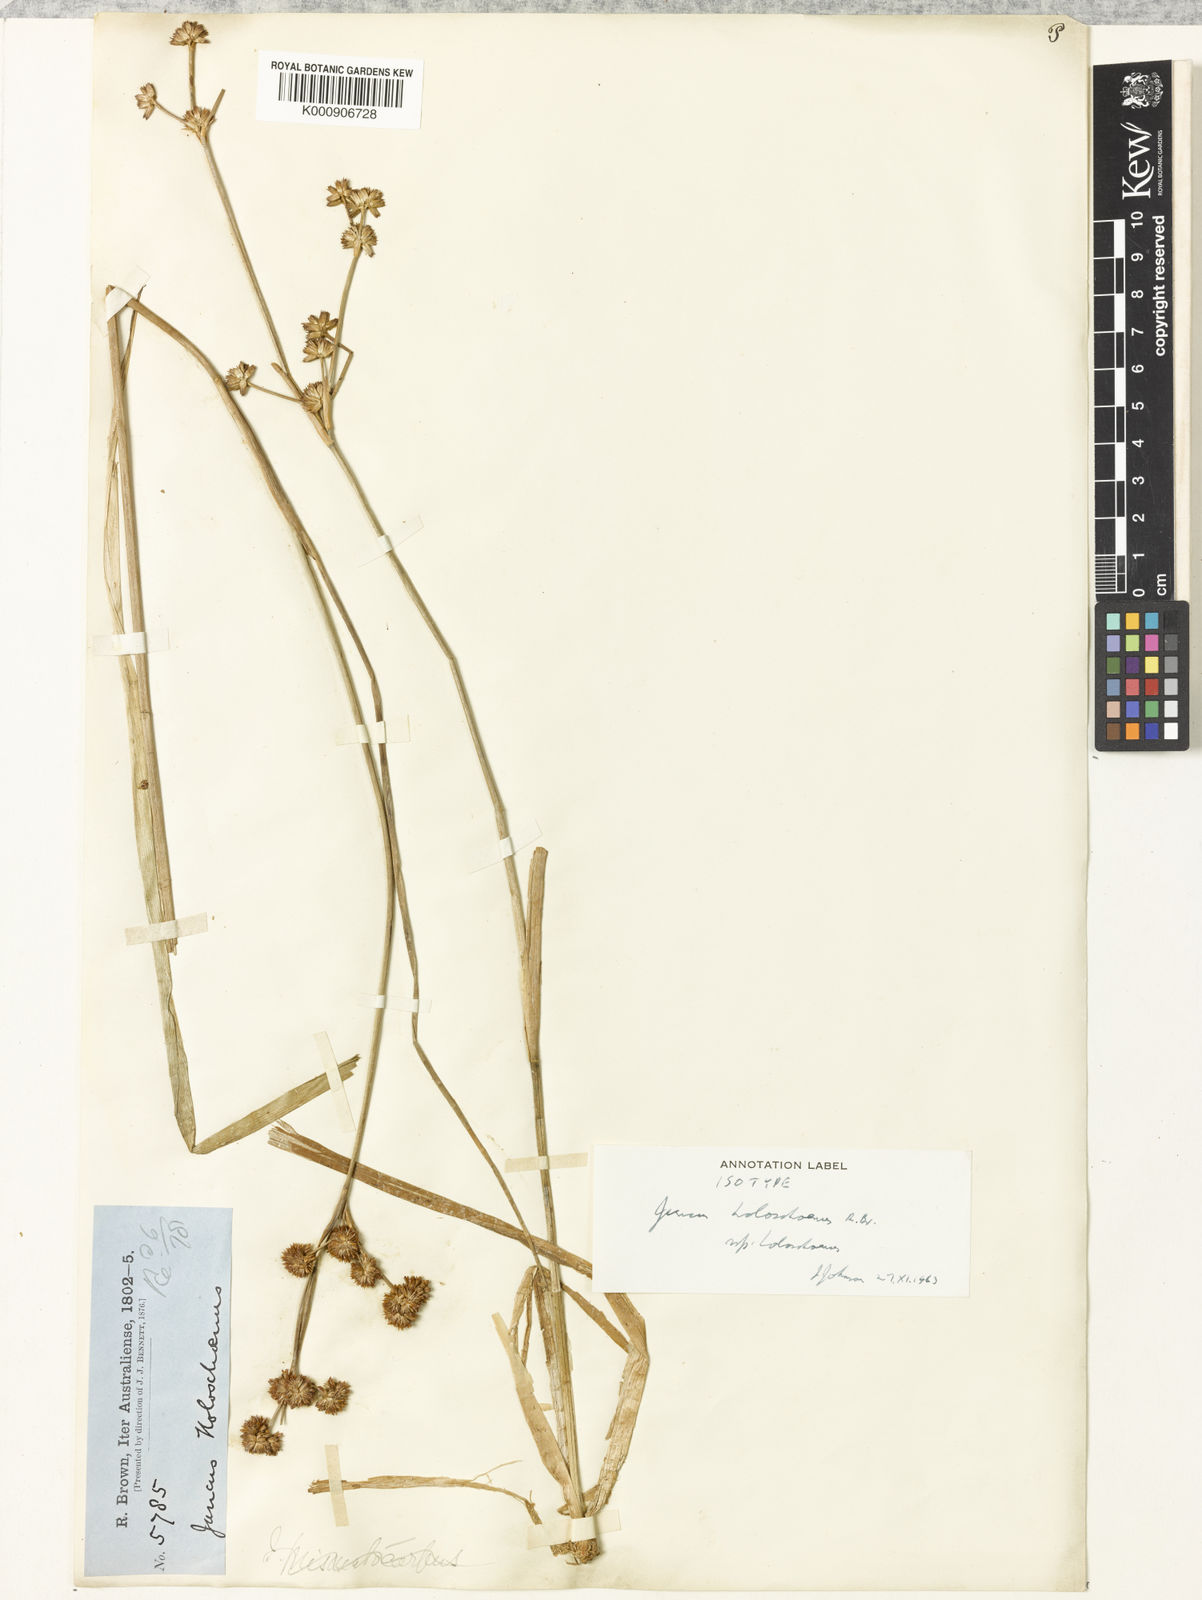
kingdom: Plantae
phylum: Tracheophyta
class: Liliopsida
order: Poales
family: Juncaceae
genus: Juncus
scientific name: Juncus holoschoenus
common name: Joint-leaf rush
